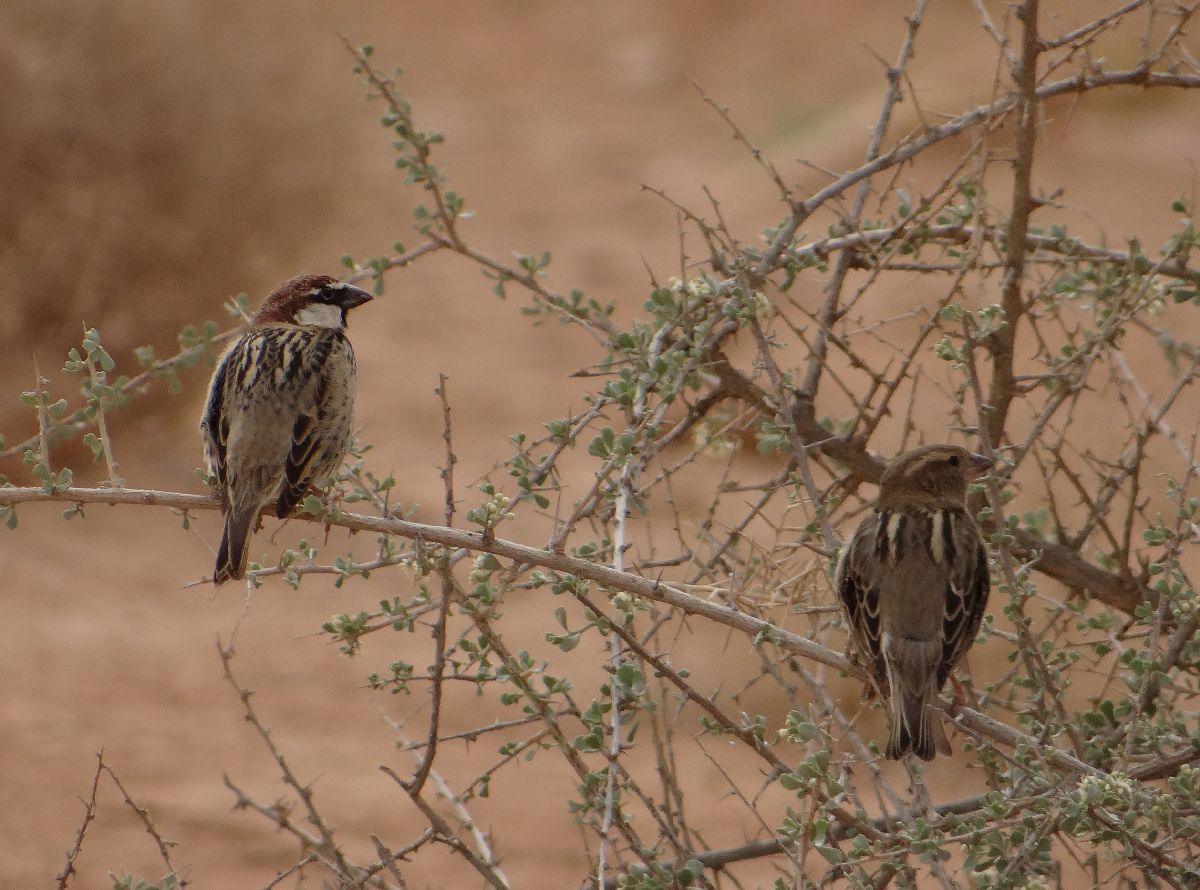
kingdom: Animalia
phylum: Chordata
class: Aves
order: Passeriformes
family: Passeridae
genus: Passer
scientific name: Passer hispaniolensis
